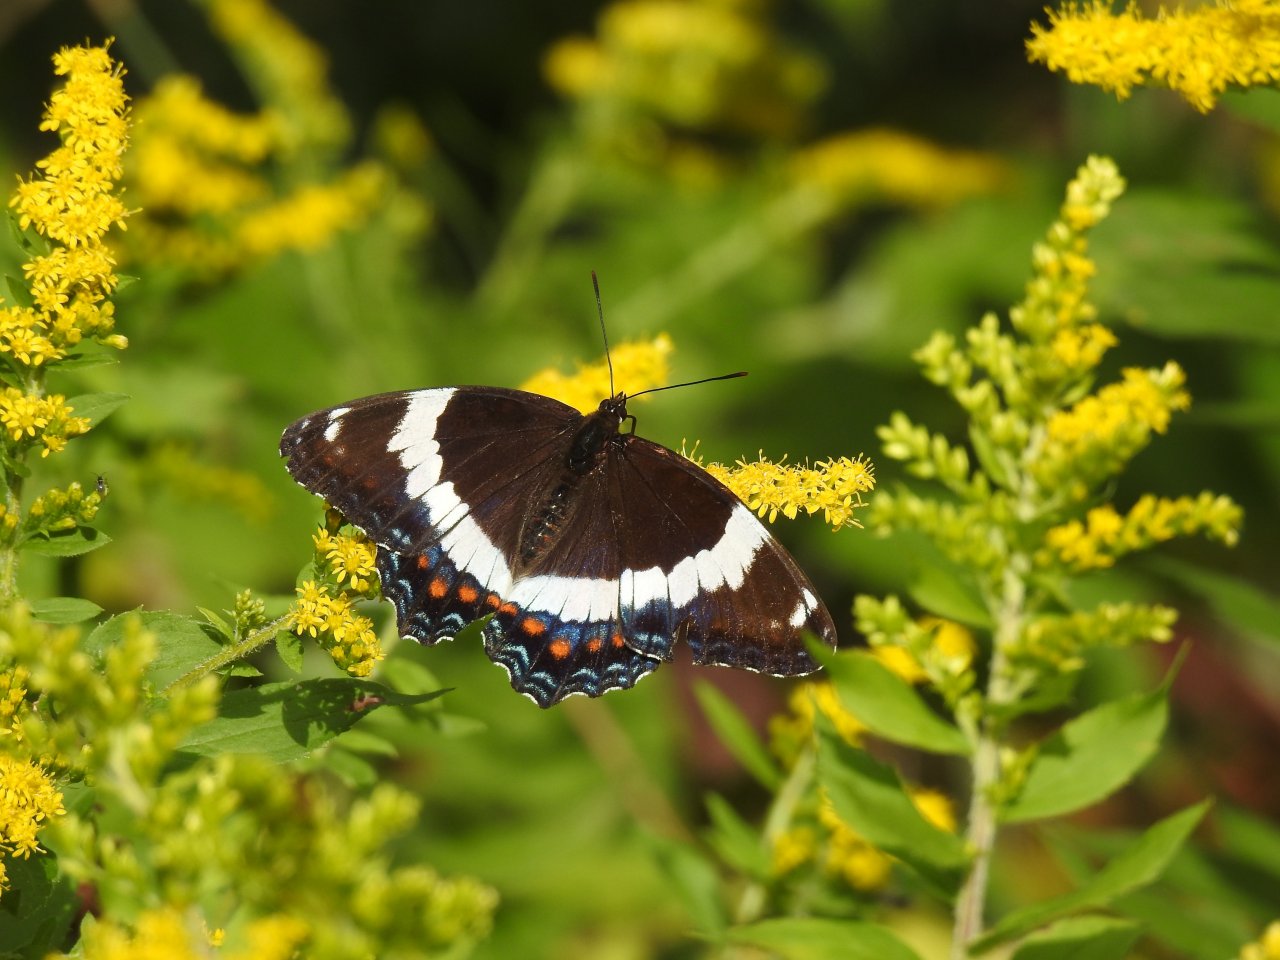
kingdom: Animalia
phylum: Arthropoda
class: Insecta
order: Lepidoptera
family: Nymphalidae
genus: Limenitis
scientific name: Limenitis arthemis
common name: Red-spotted Admiral
